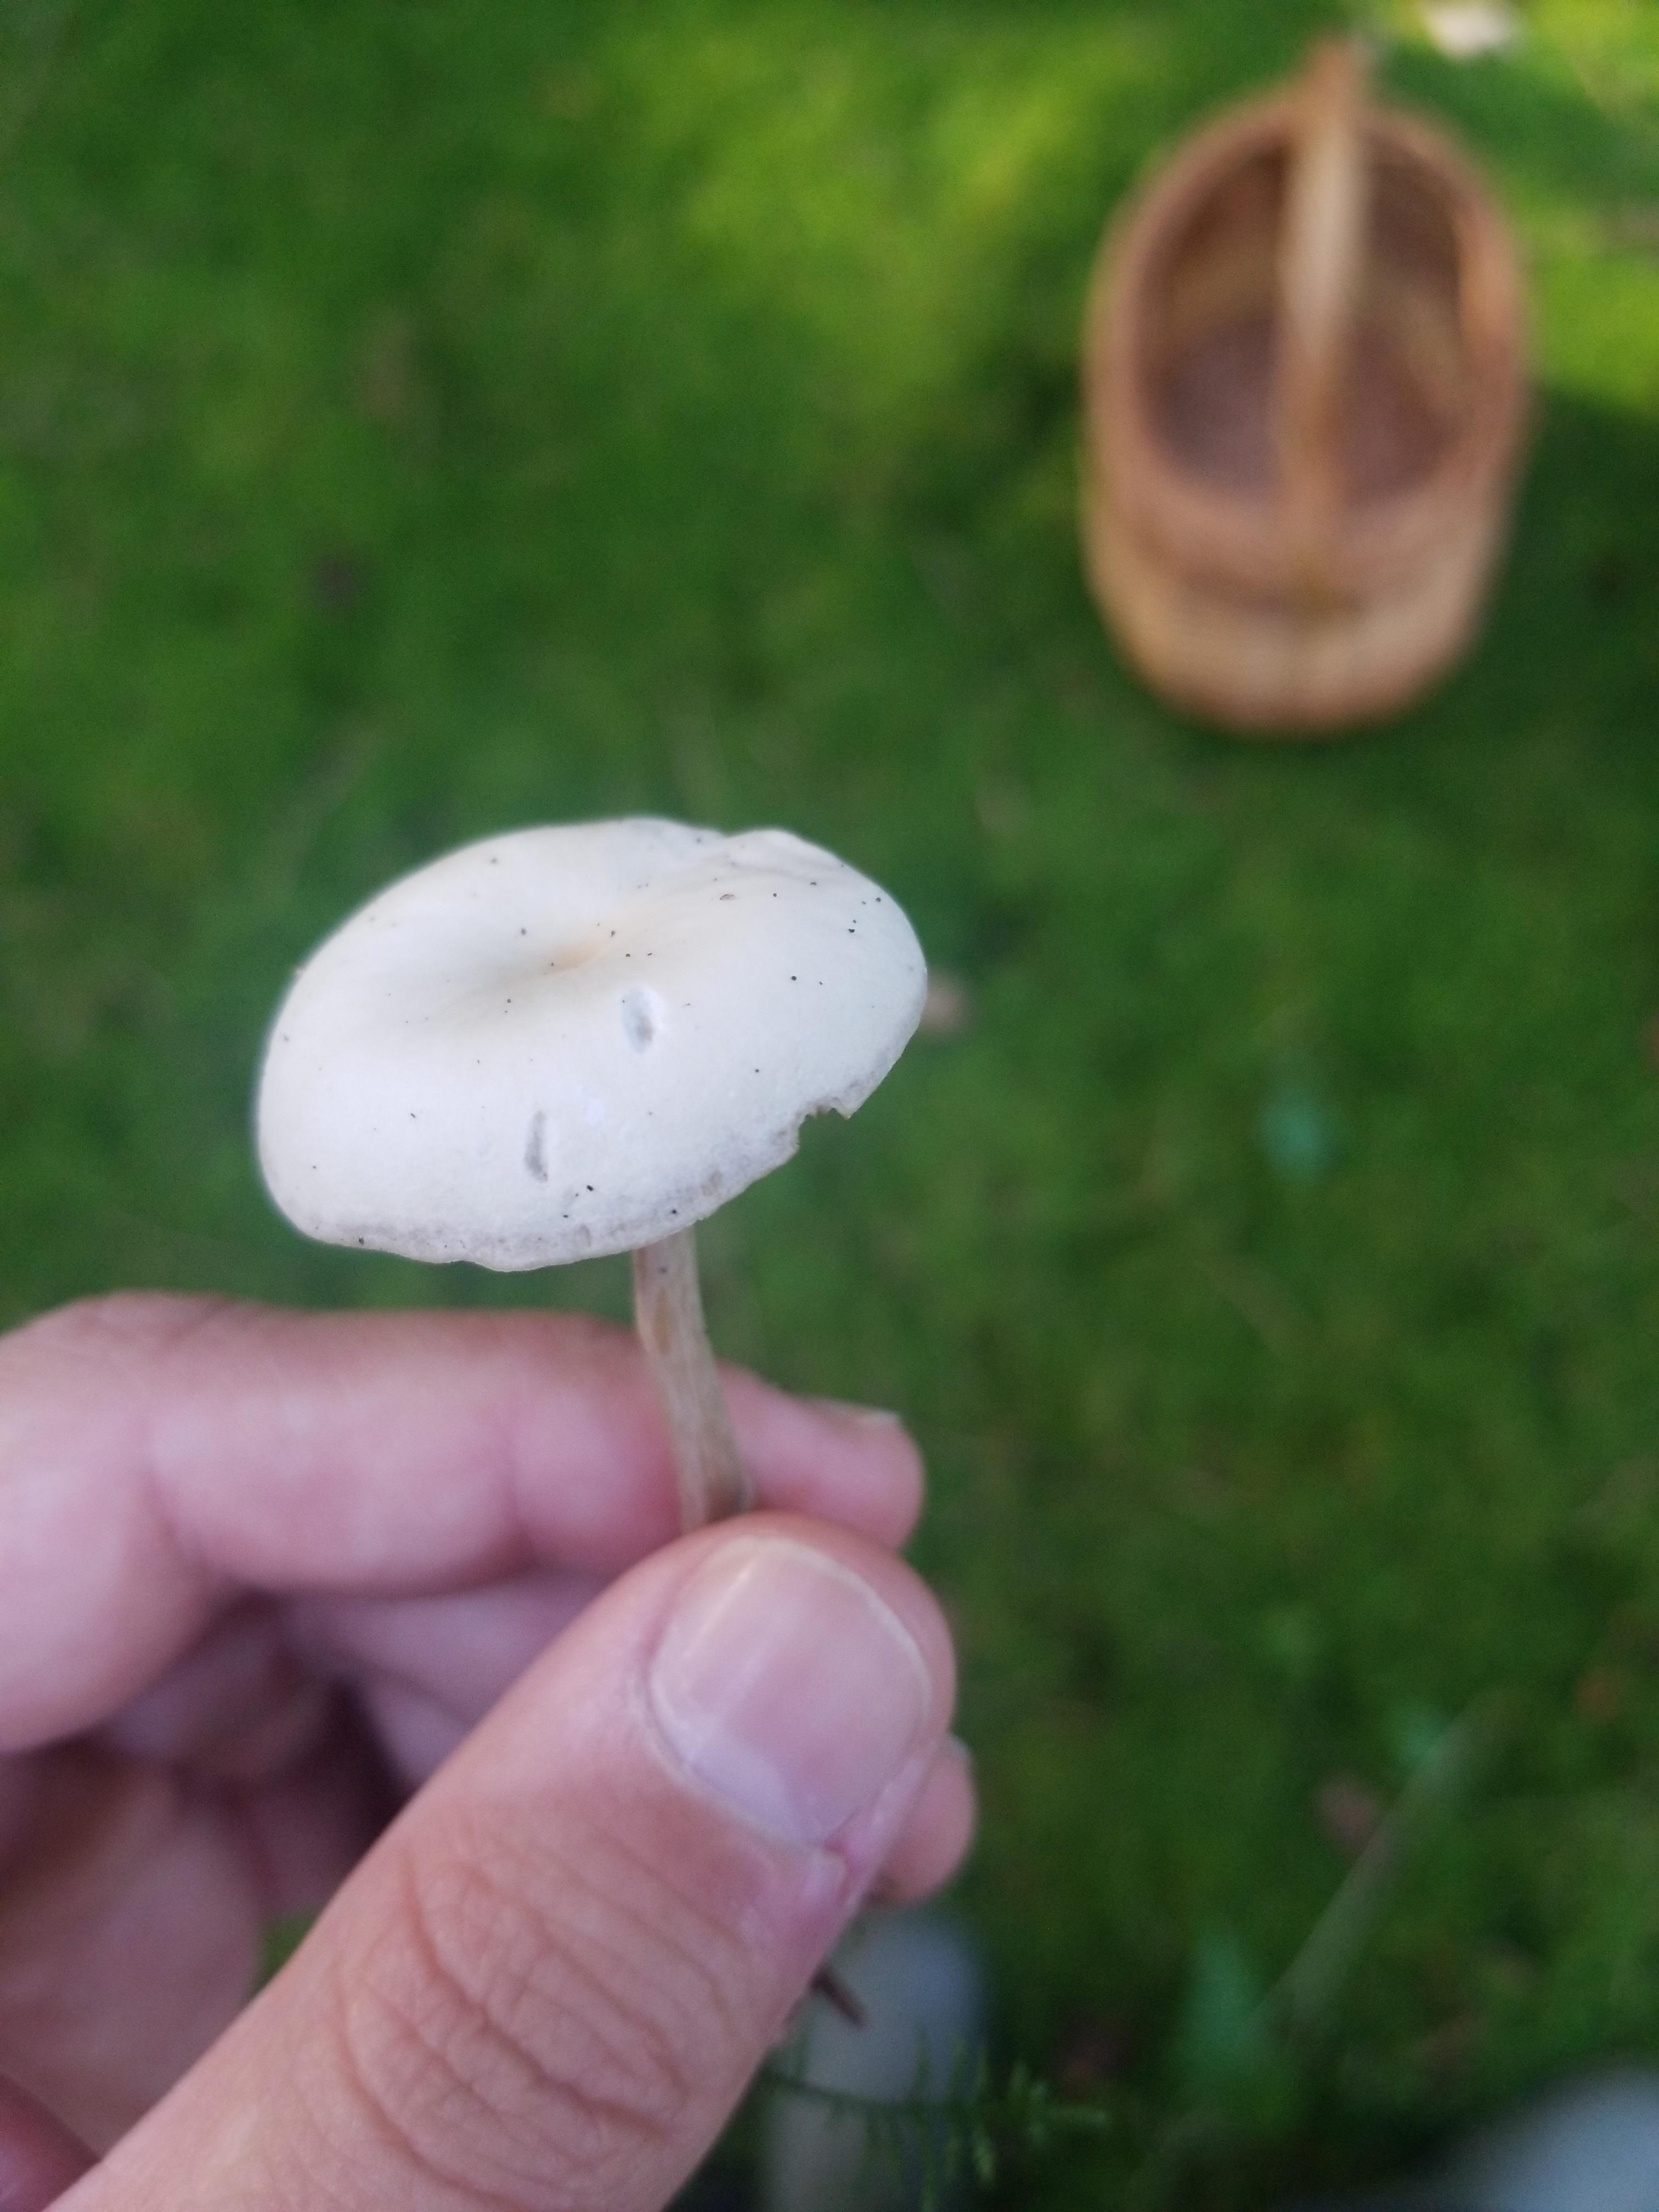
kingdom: Fungi
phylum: Basidiomycota
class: Agaricomycetes
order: Agaricales
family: Tricholomataceae
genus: Clitocybe
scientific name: Clitocybe fragrans
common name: vellugtende tragthat
